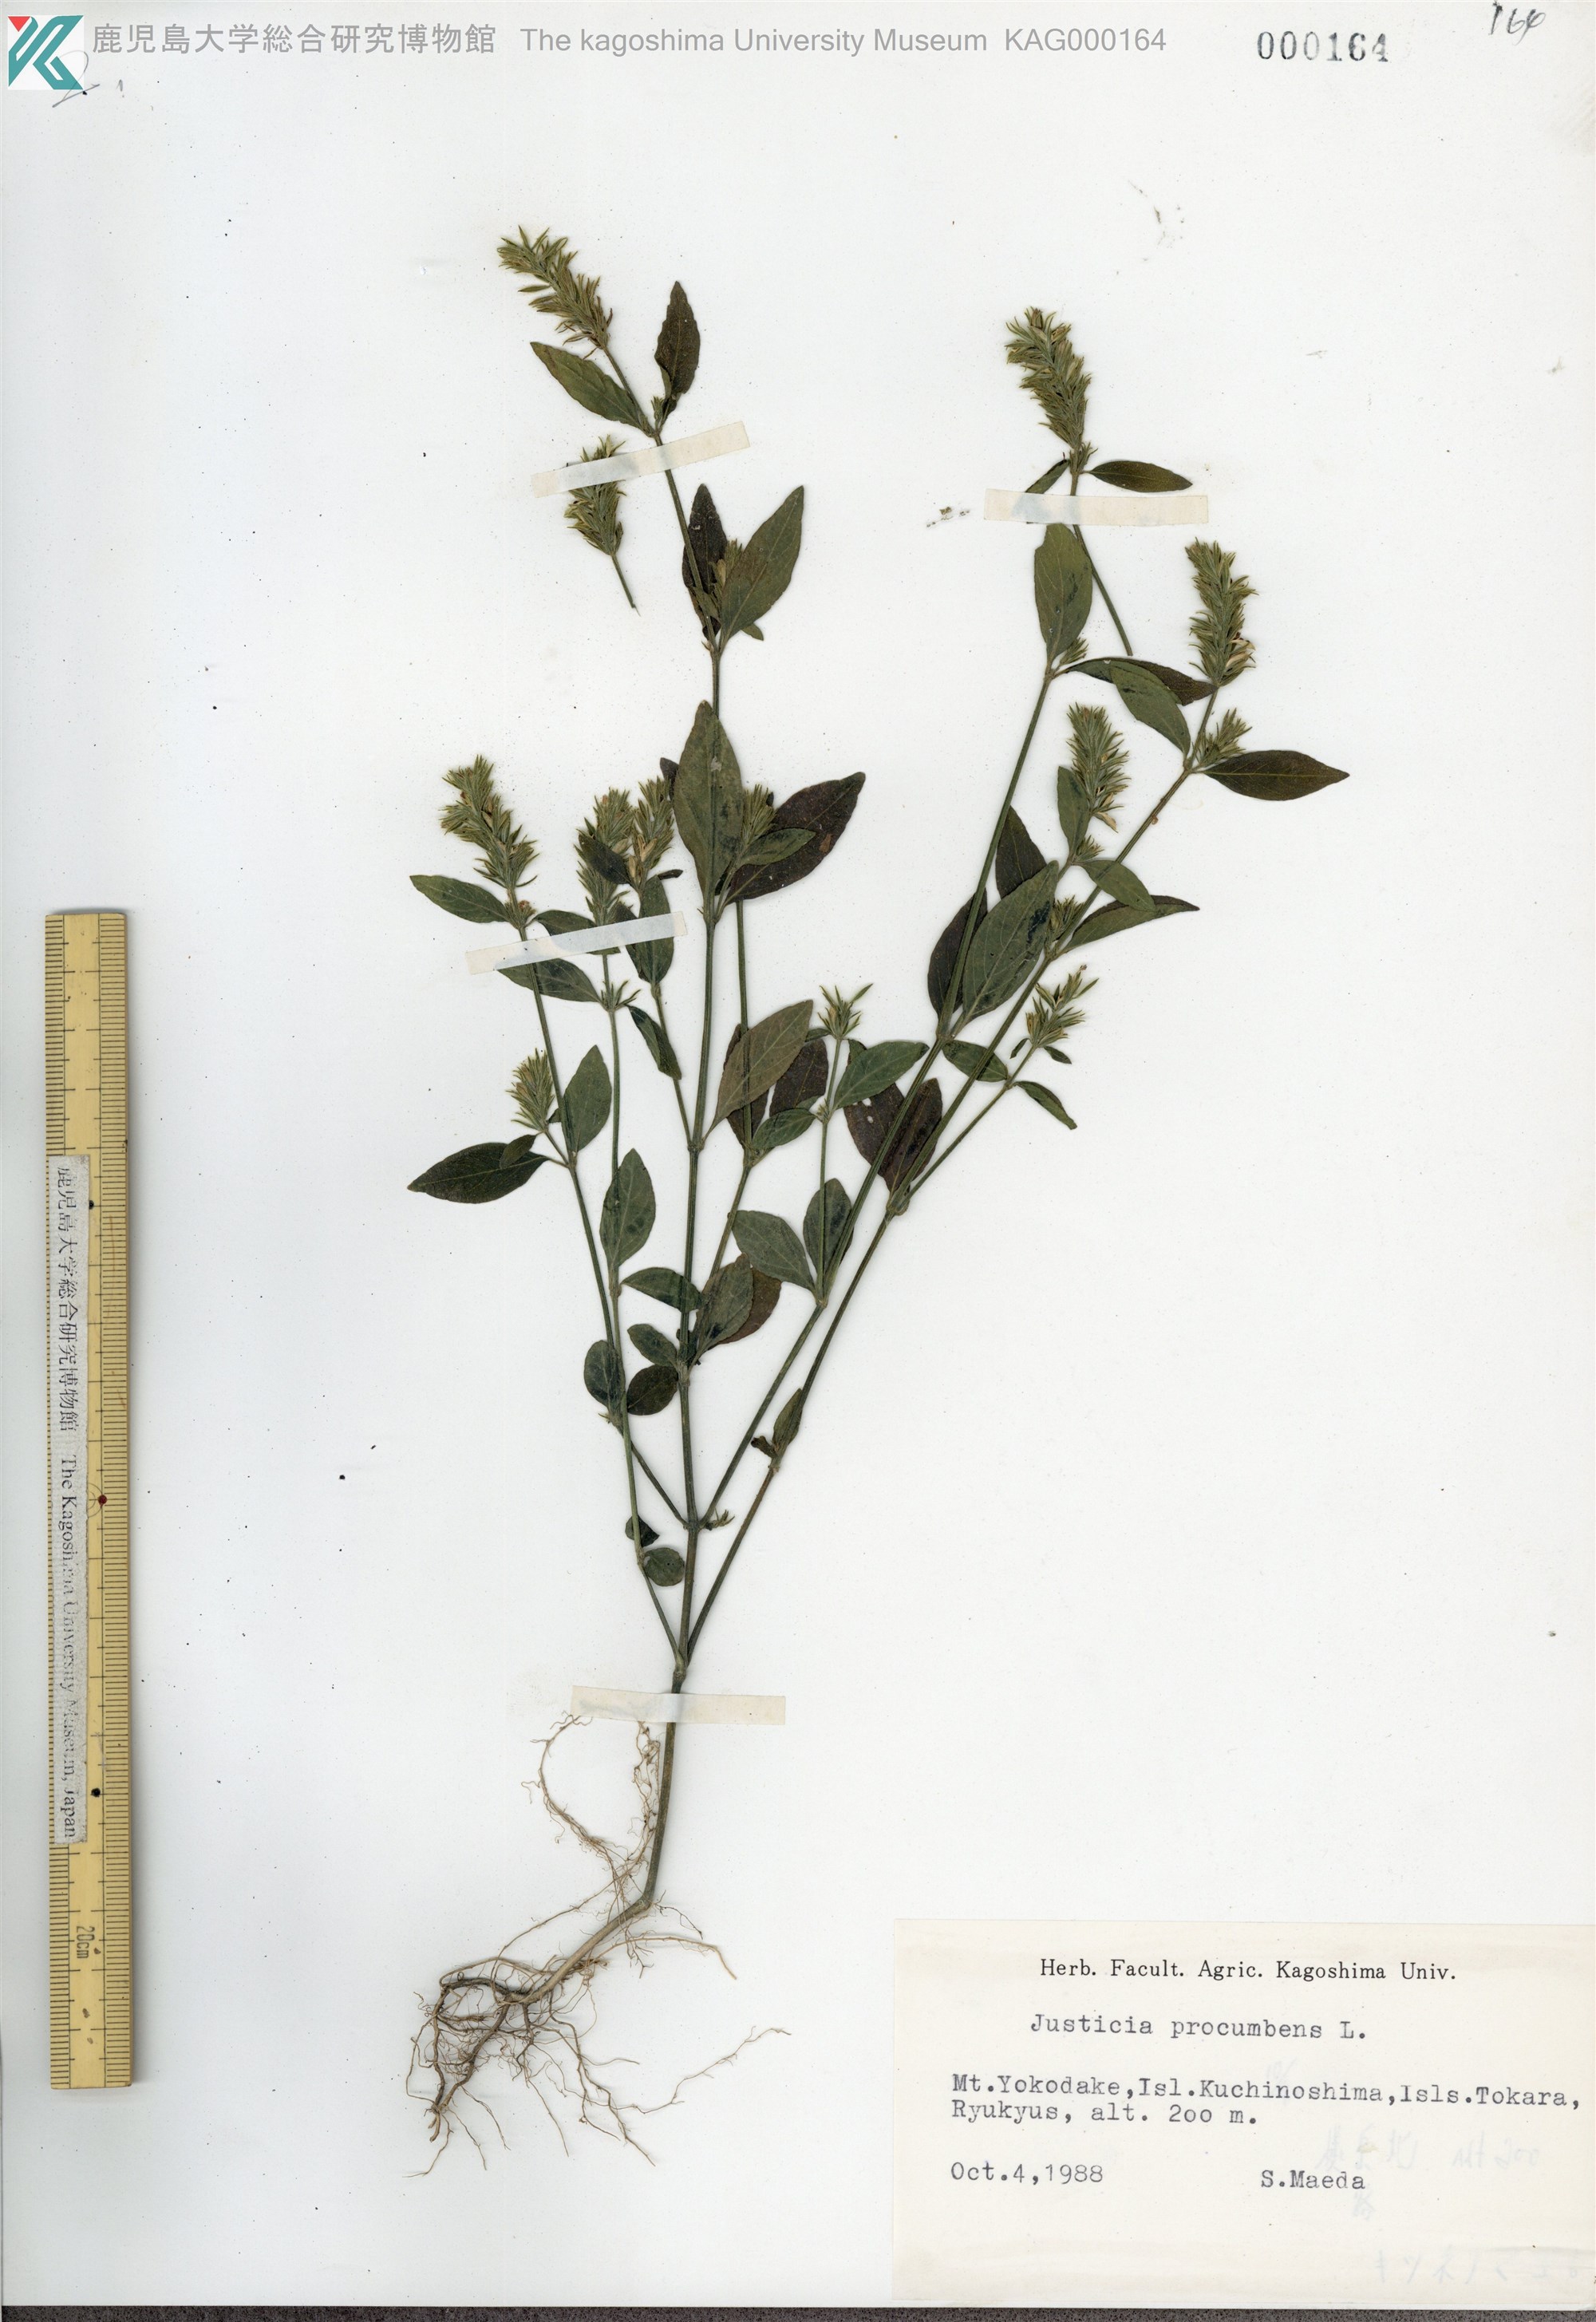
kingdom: Plantae
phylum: Tracheophyta
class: Magnoliopsida
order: Lamiales
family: Acanthaceae
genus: Rostellularia
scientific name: Rostellularia procumbens
